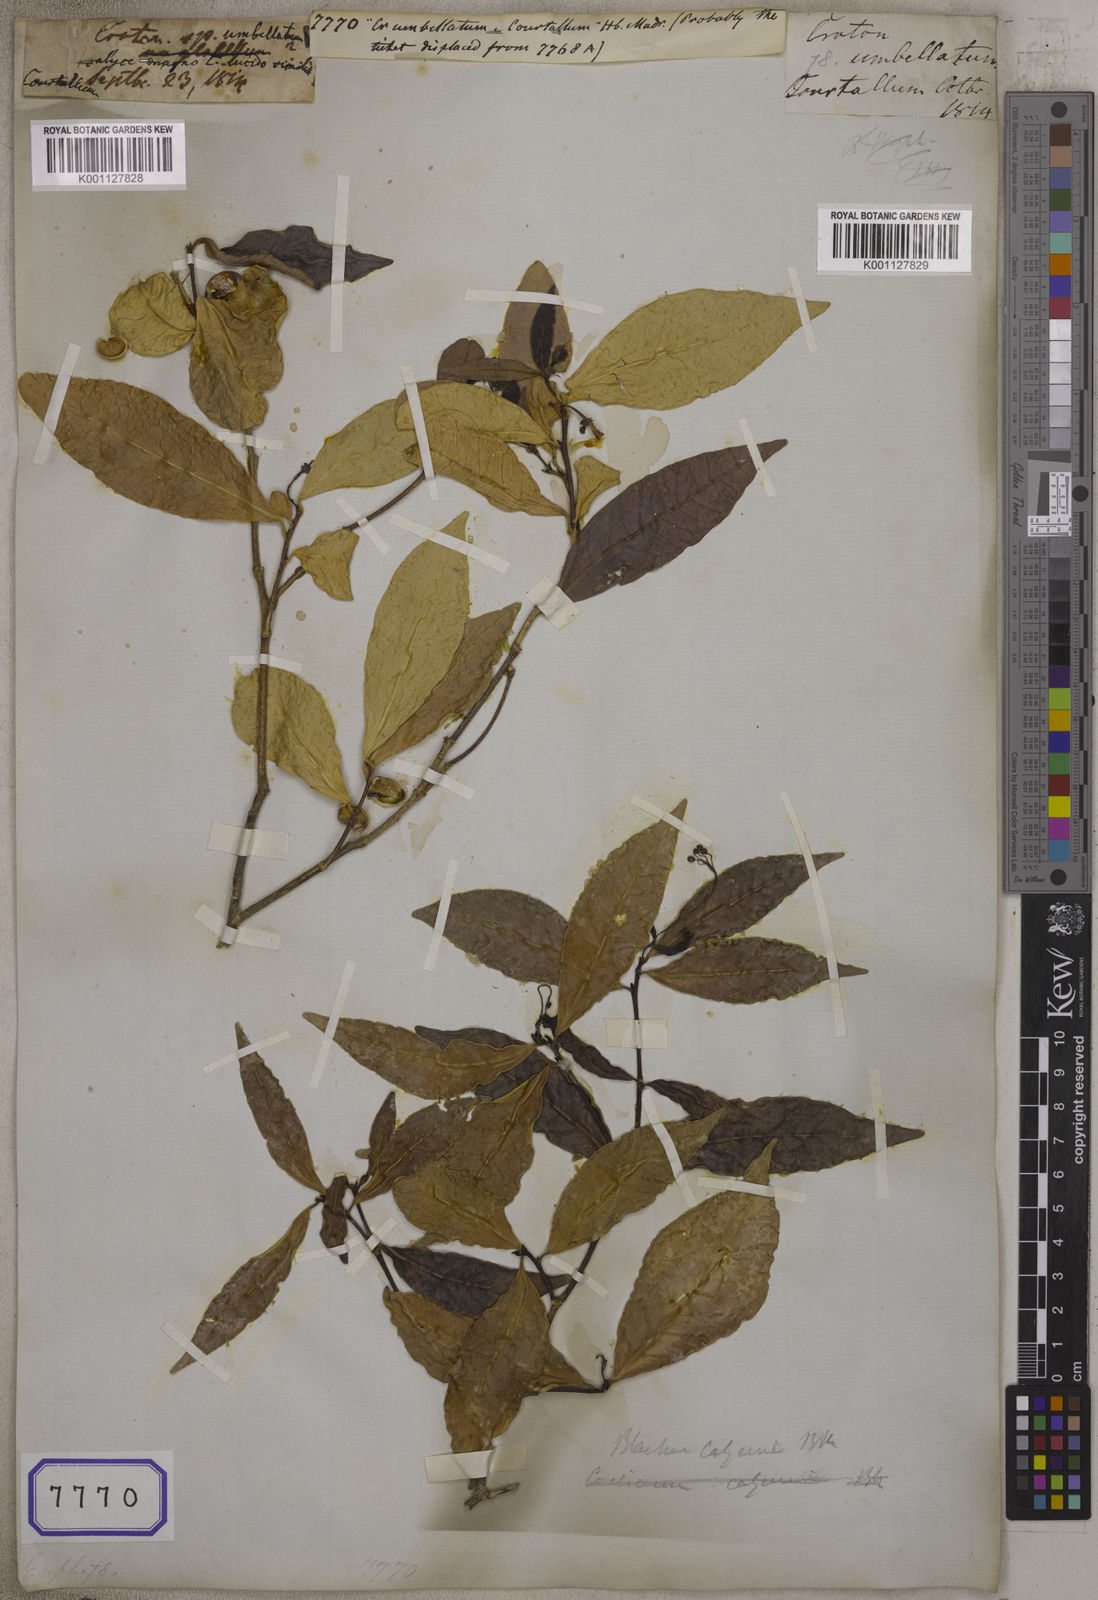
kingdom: Plantae
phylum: Tracheophyta
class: Magnoliopsida
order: Malpighiales
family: Euphorbiaceae
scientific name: Euphorbiaceae
